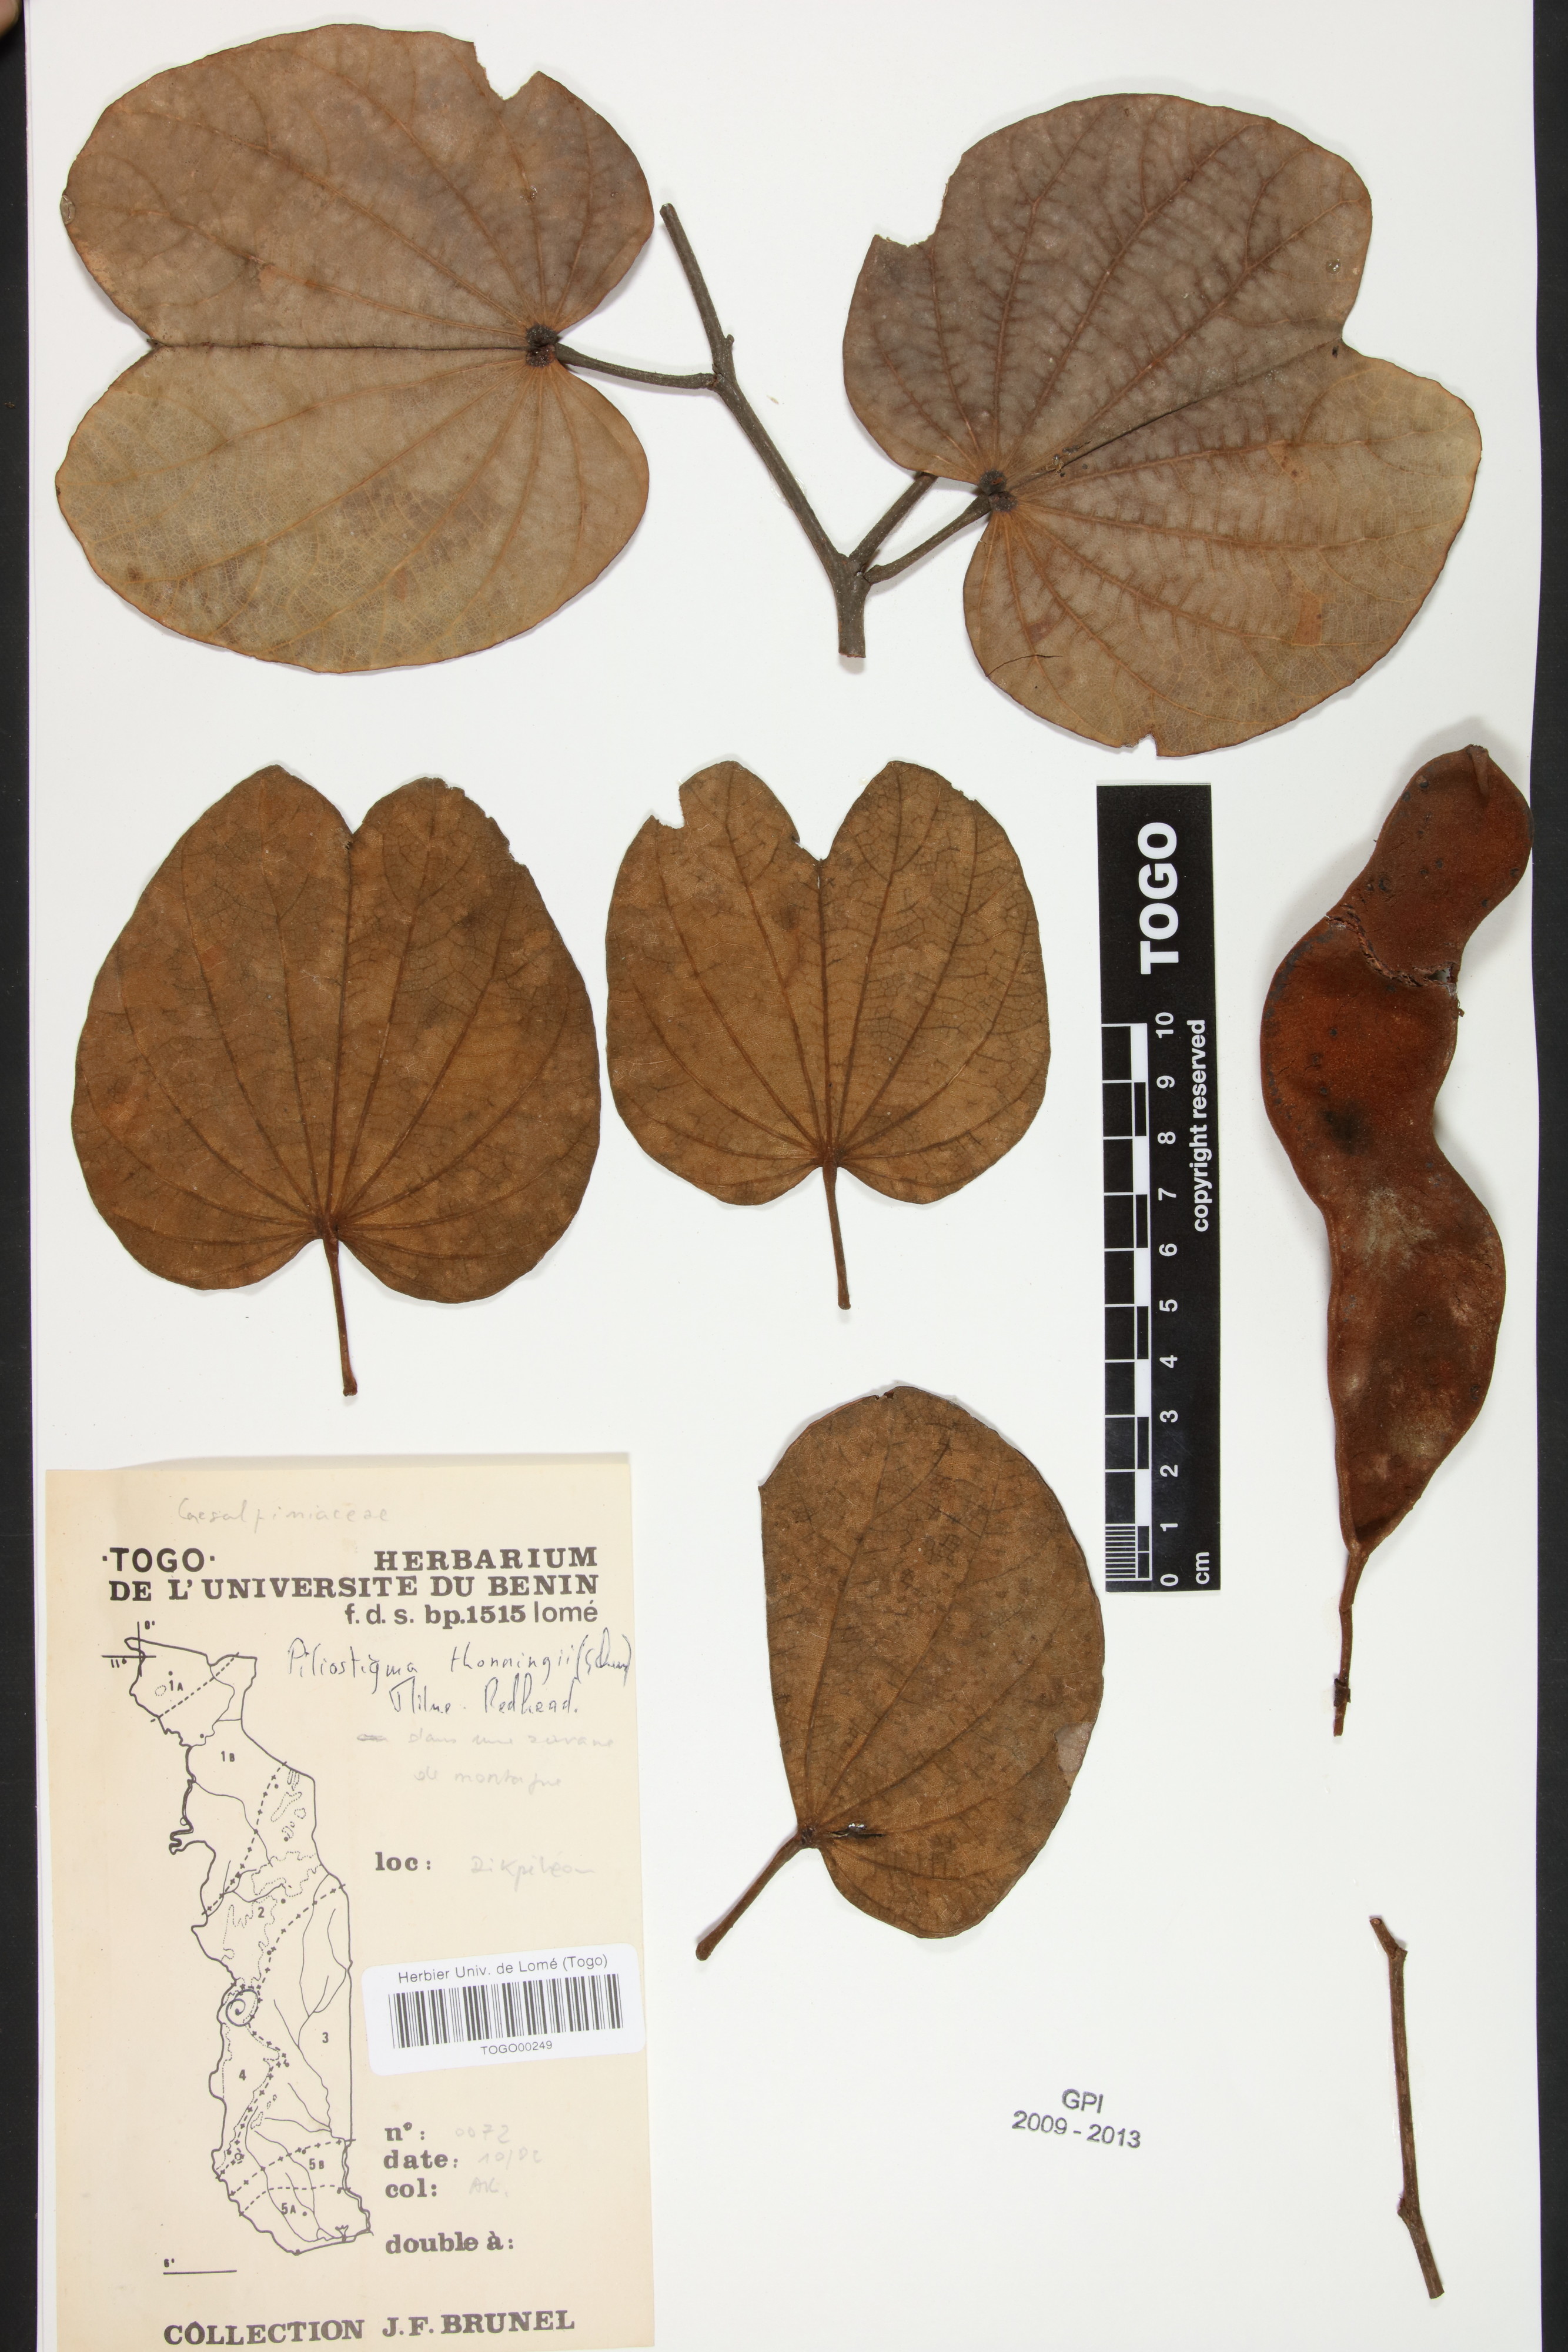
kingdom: Plantae
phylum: Tracheophyta
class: Magnoliopsida
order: Fabales
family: Fabaceae
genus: Piliostigma
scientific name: Piliostigma thonningii
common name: Kao
